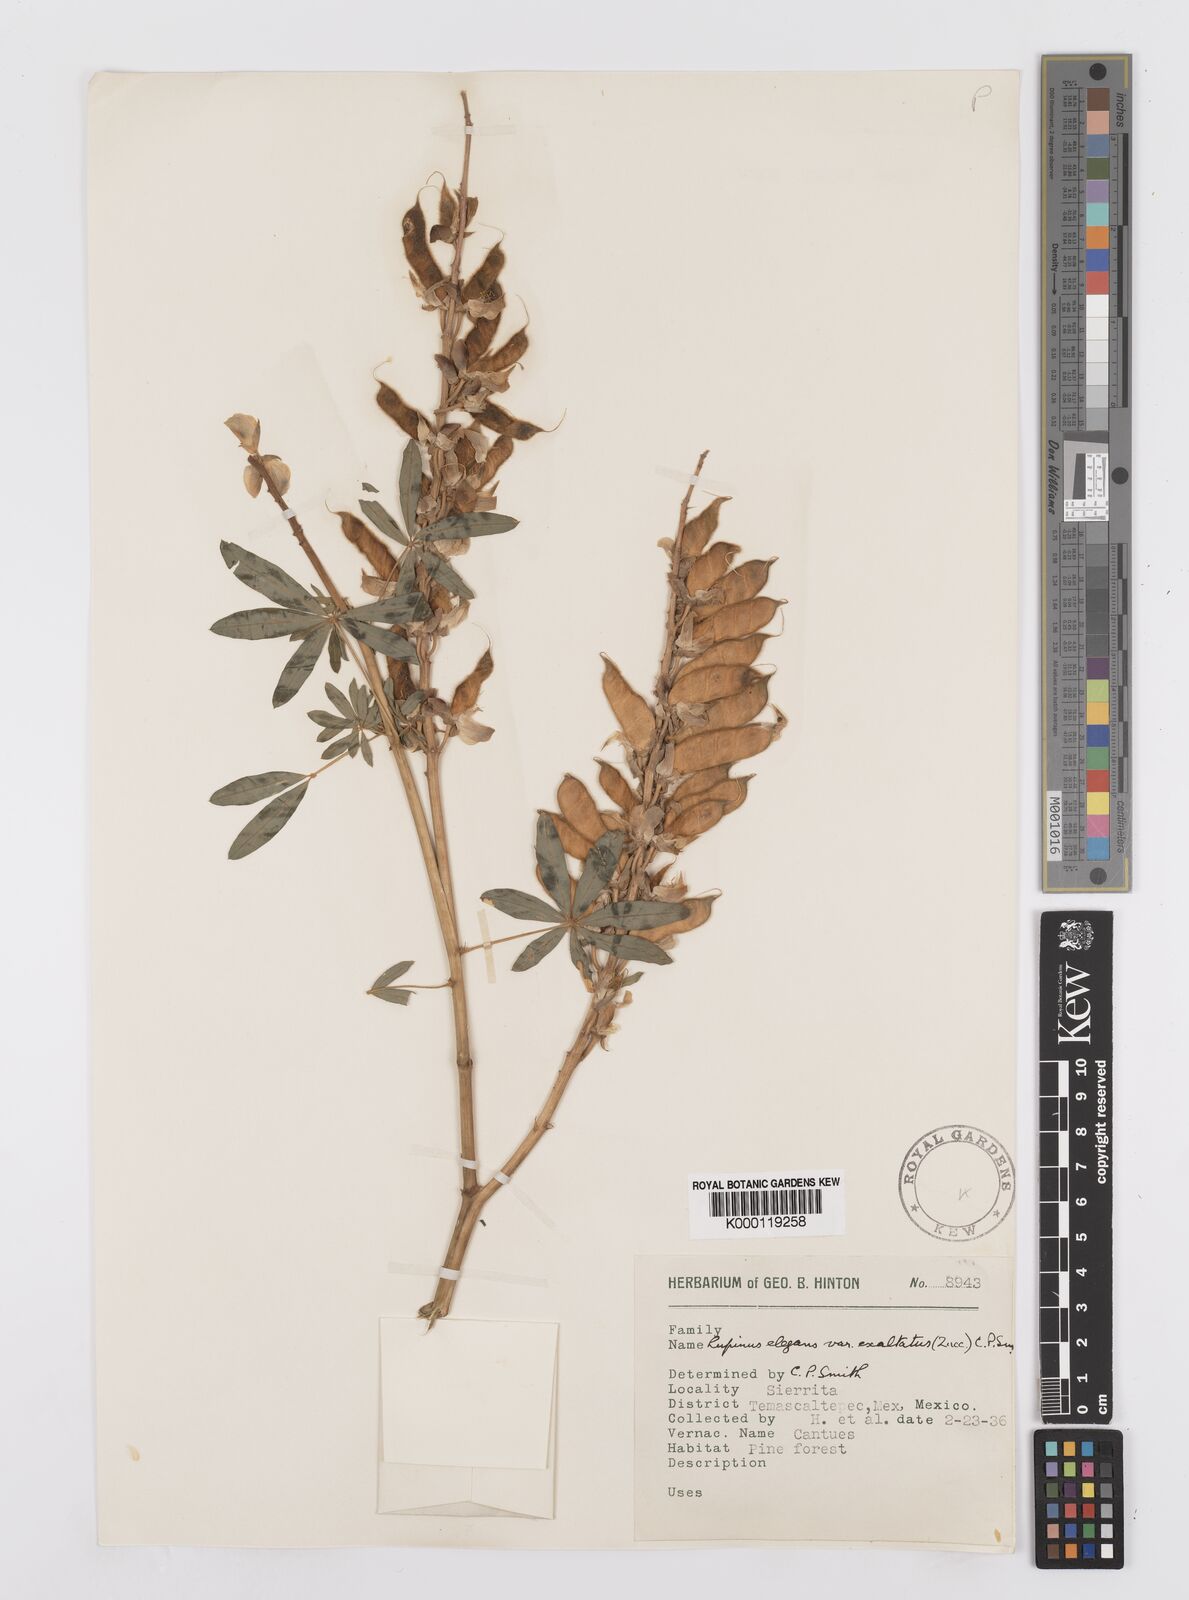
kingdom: Plantae
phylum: Tracheophyta
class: Magnoliopsida
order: Fabales
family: Fabaceae
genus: Lupinus
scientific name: Lupinus elegans
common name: Mexican lupine
